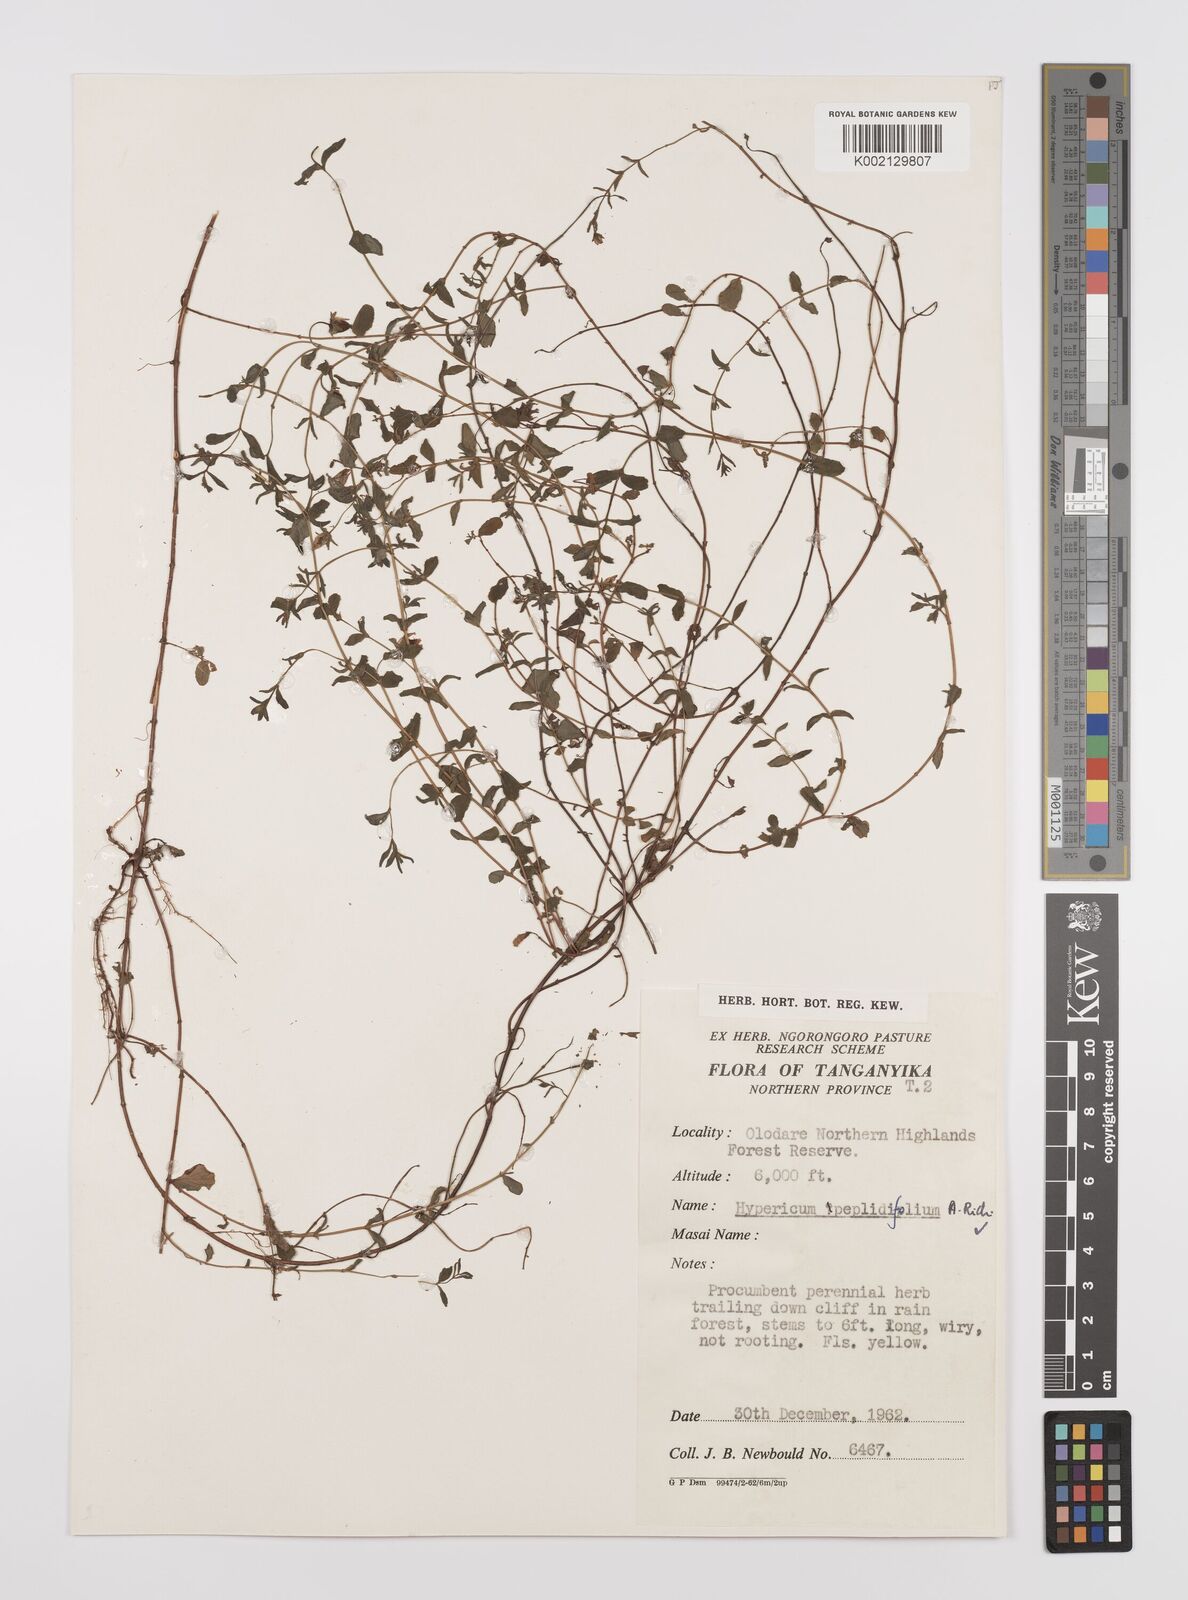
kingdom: Plantae
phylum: Tracheophyta
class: Magnoliopsida
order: Malpighiales
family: Hypericaceae
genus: Hypericum
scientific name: Hypericum peplidifolium
